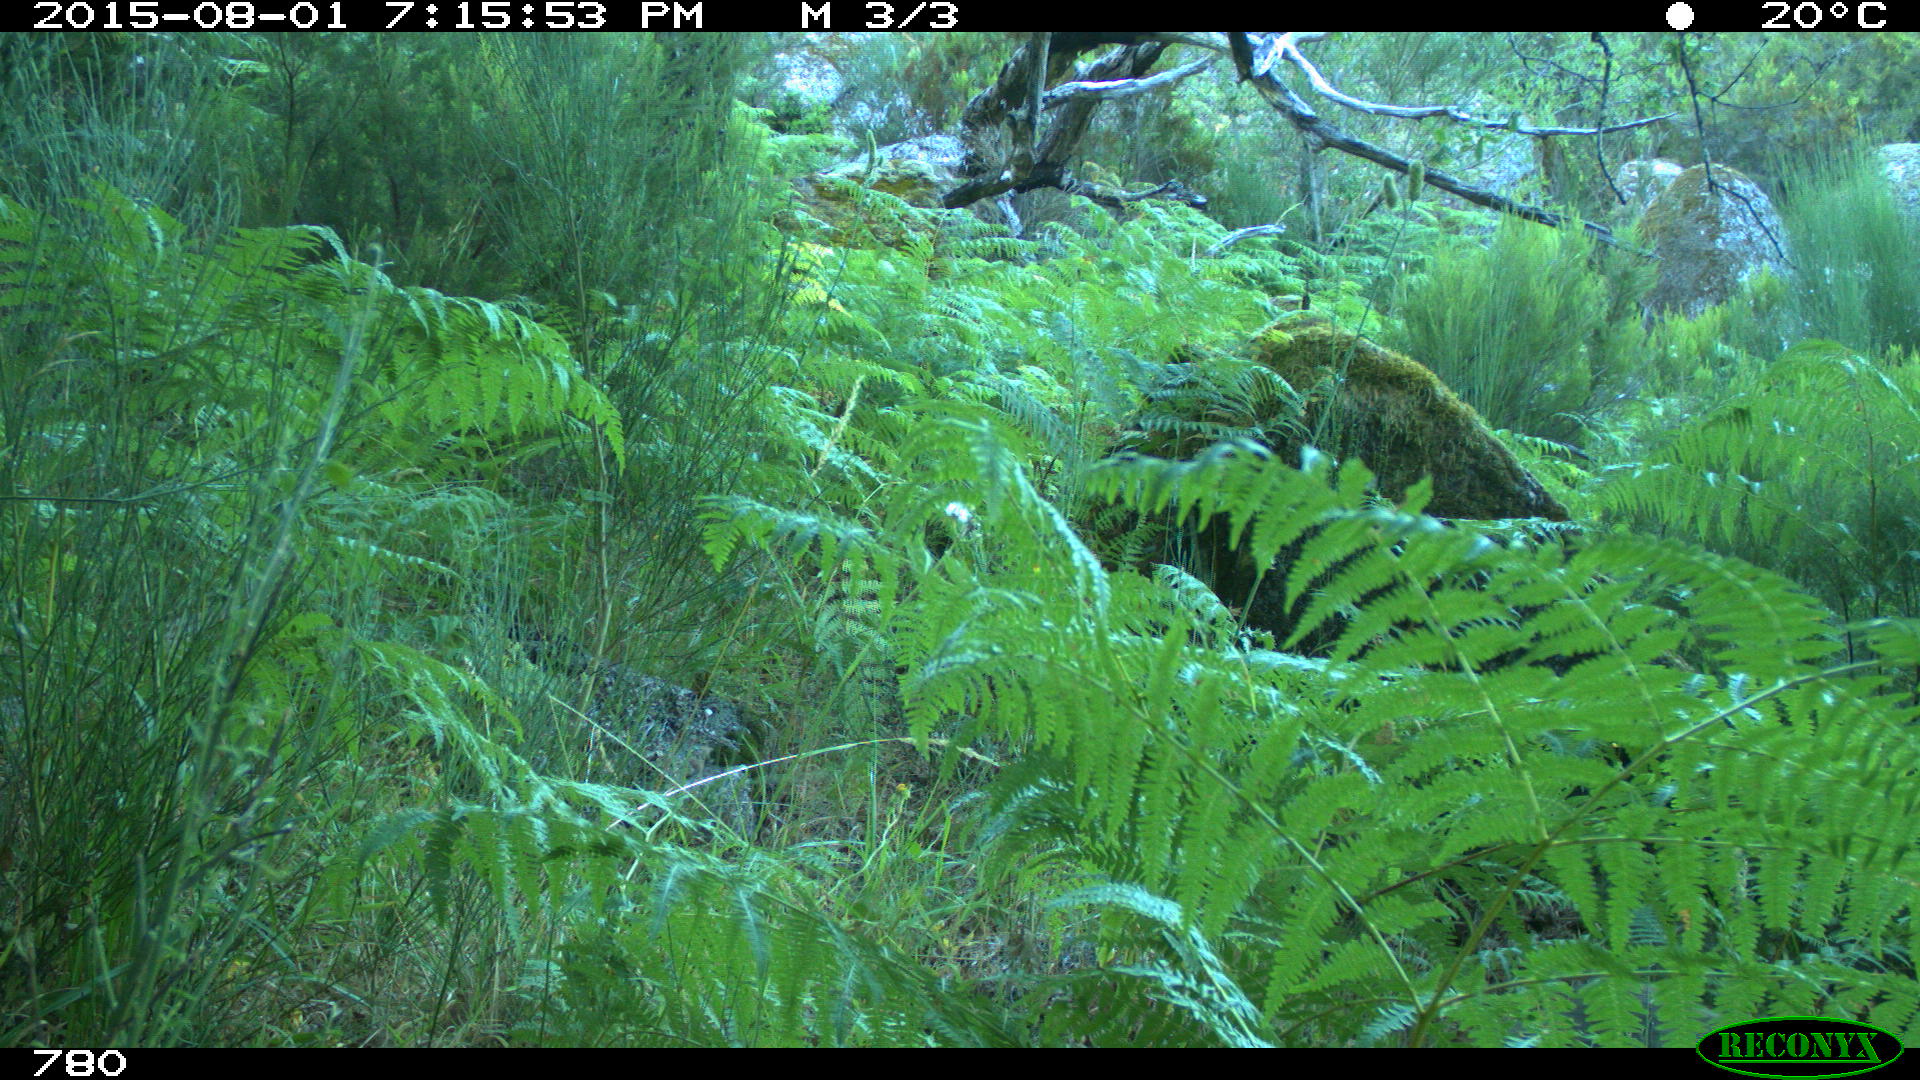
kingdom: Animalia
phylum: Chordata
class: Mammalia
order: Artiodactyla
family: Suidae
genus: Sus
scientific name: Sus scrofa
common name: Wild boar
